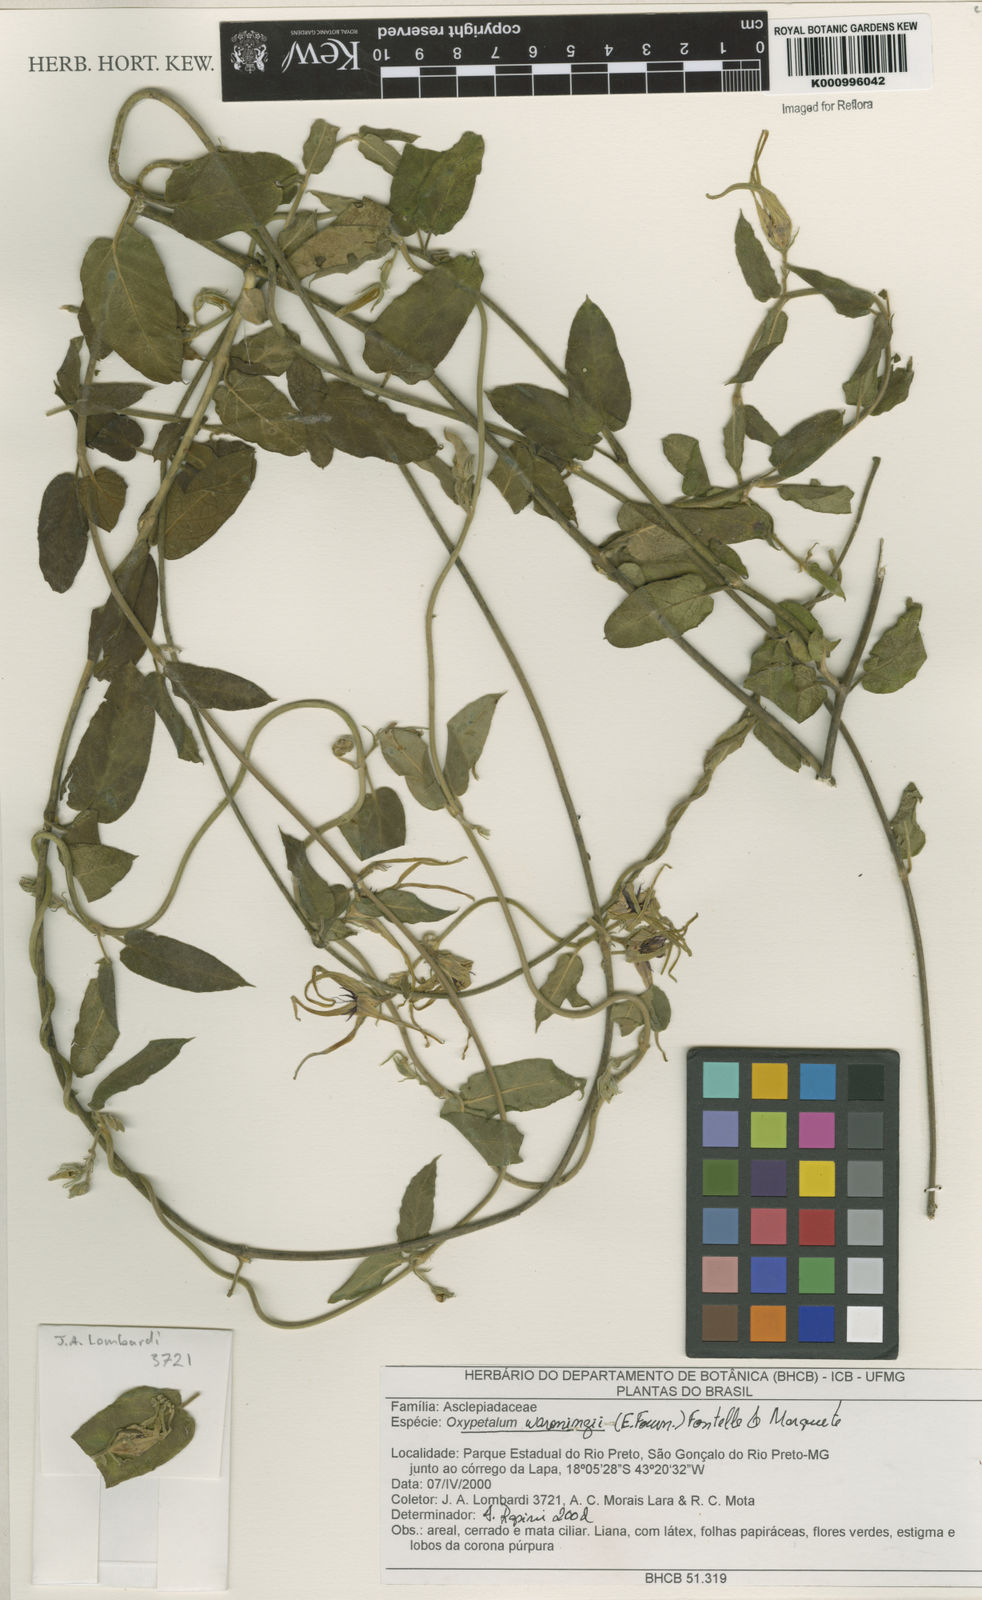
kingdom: Plantae
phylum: Tracheophyta
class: Magnoliopsida
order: Gentianales
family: Apocynaceae
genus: Oxypetalum
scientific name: Oxypetalum warmingii
